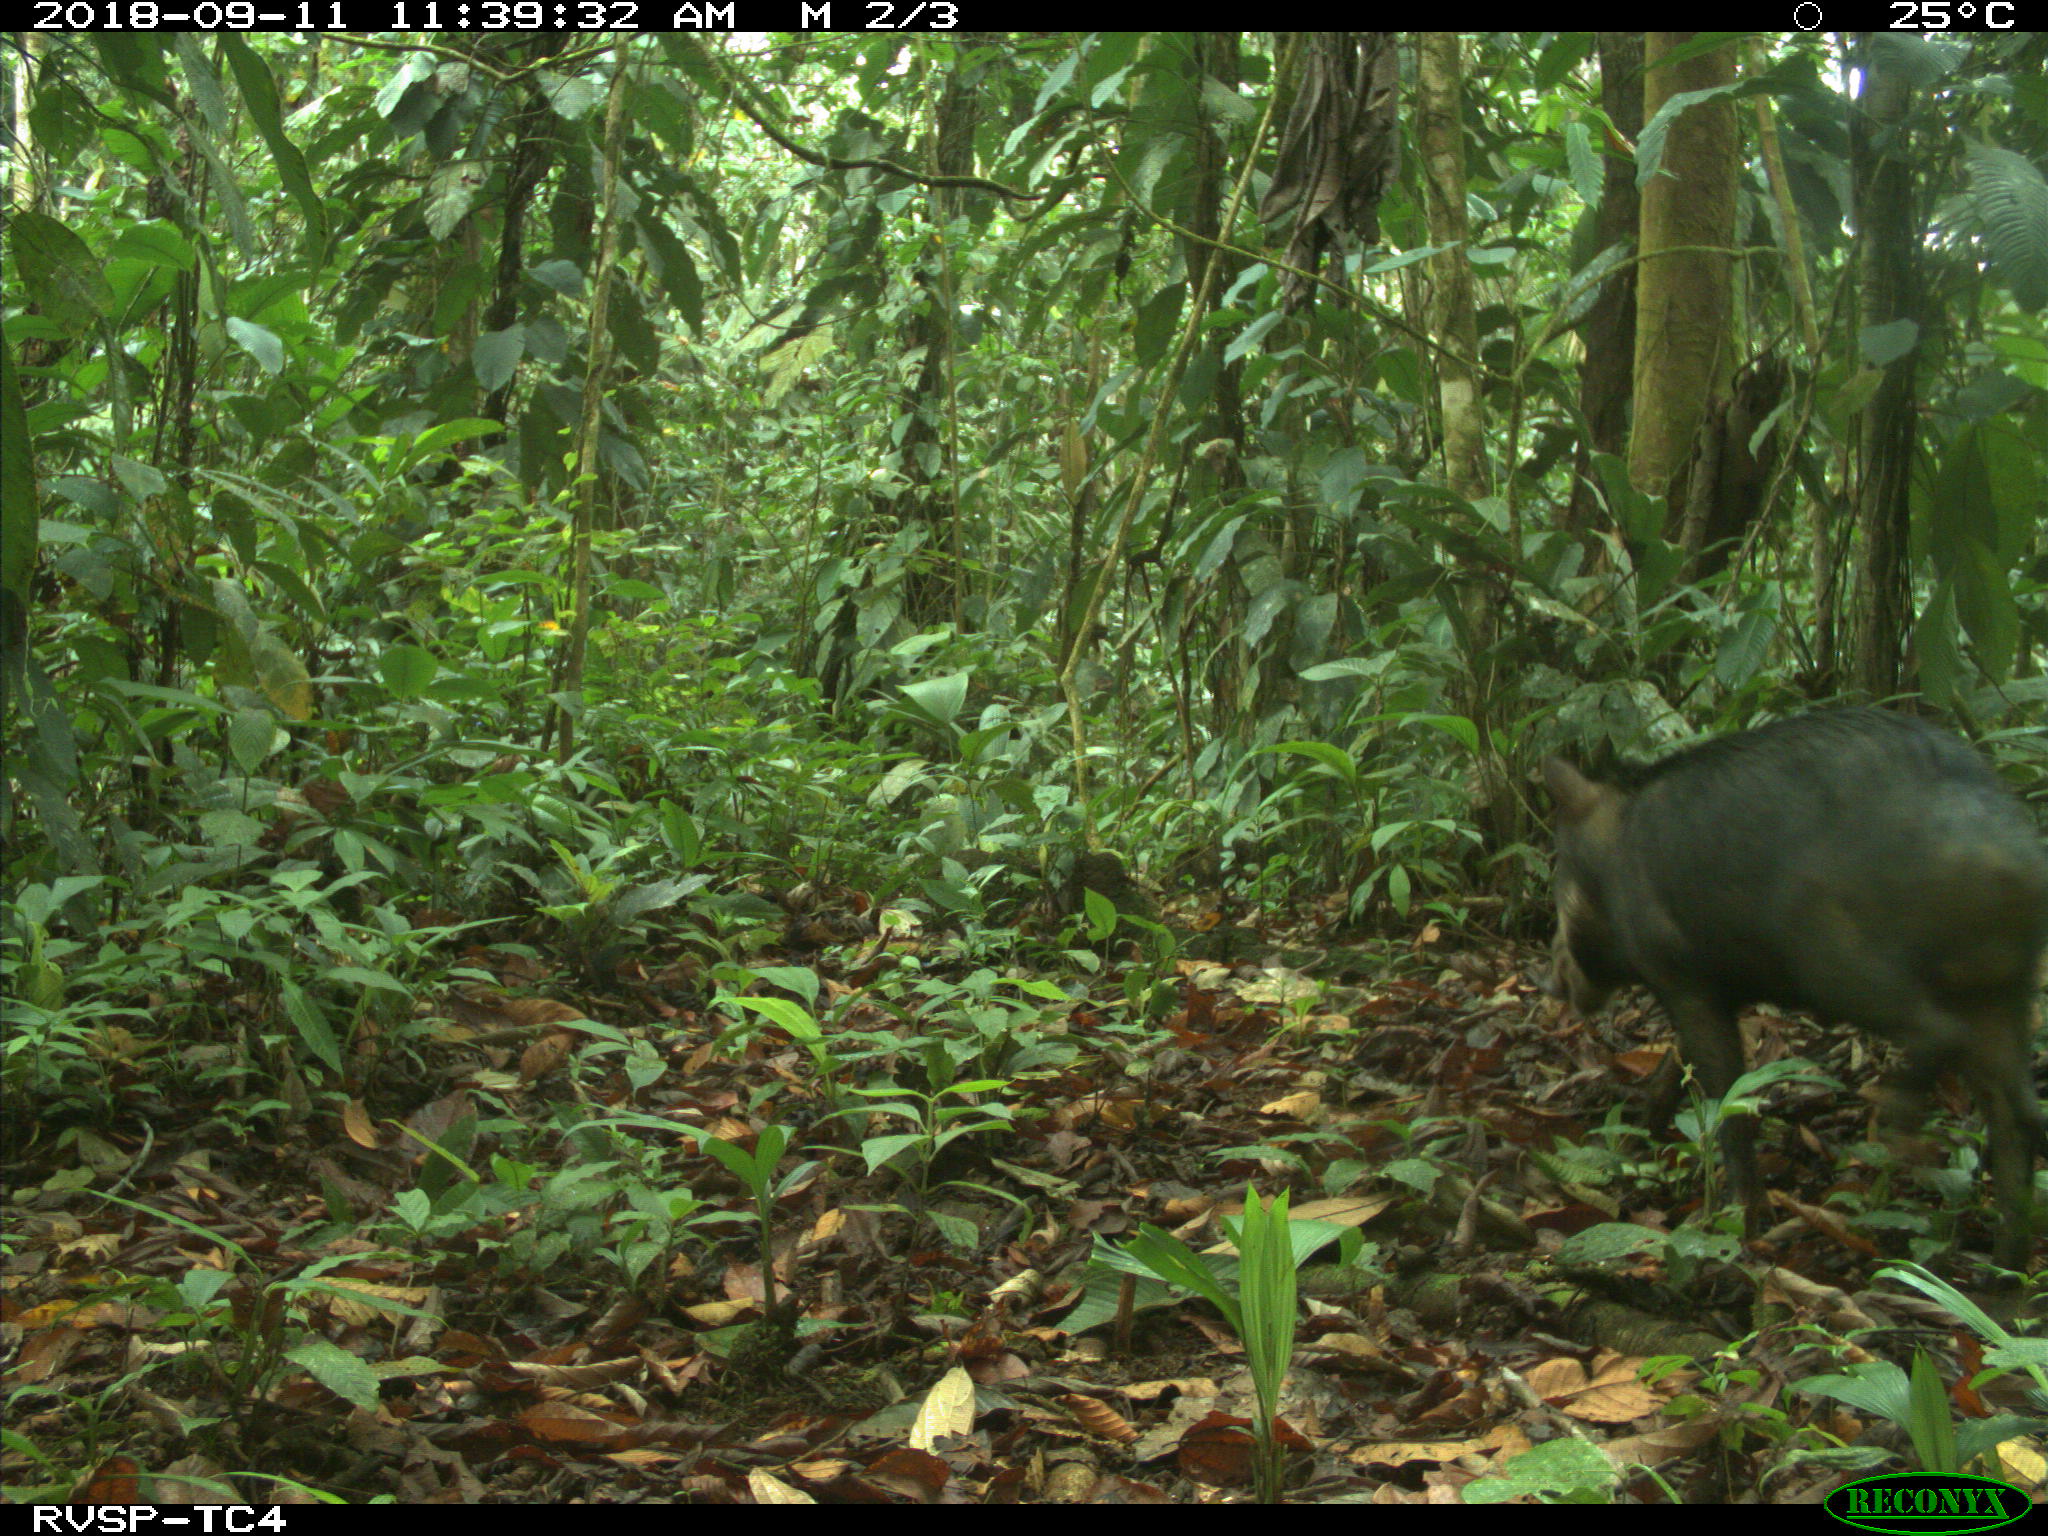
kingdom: Animalia
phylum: Chordata
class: Mammalia
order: Artiodactyla
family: Tayassuidae
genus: Tayassu
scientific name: Tayassu pecari
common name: White-lipped peccary
